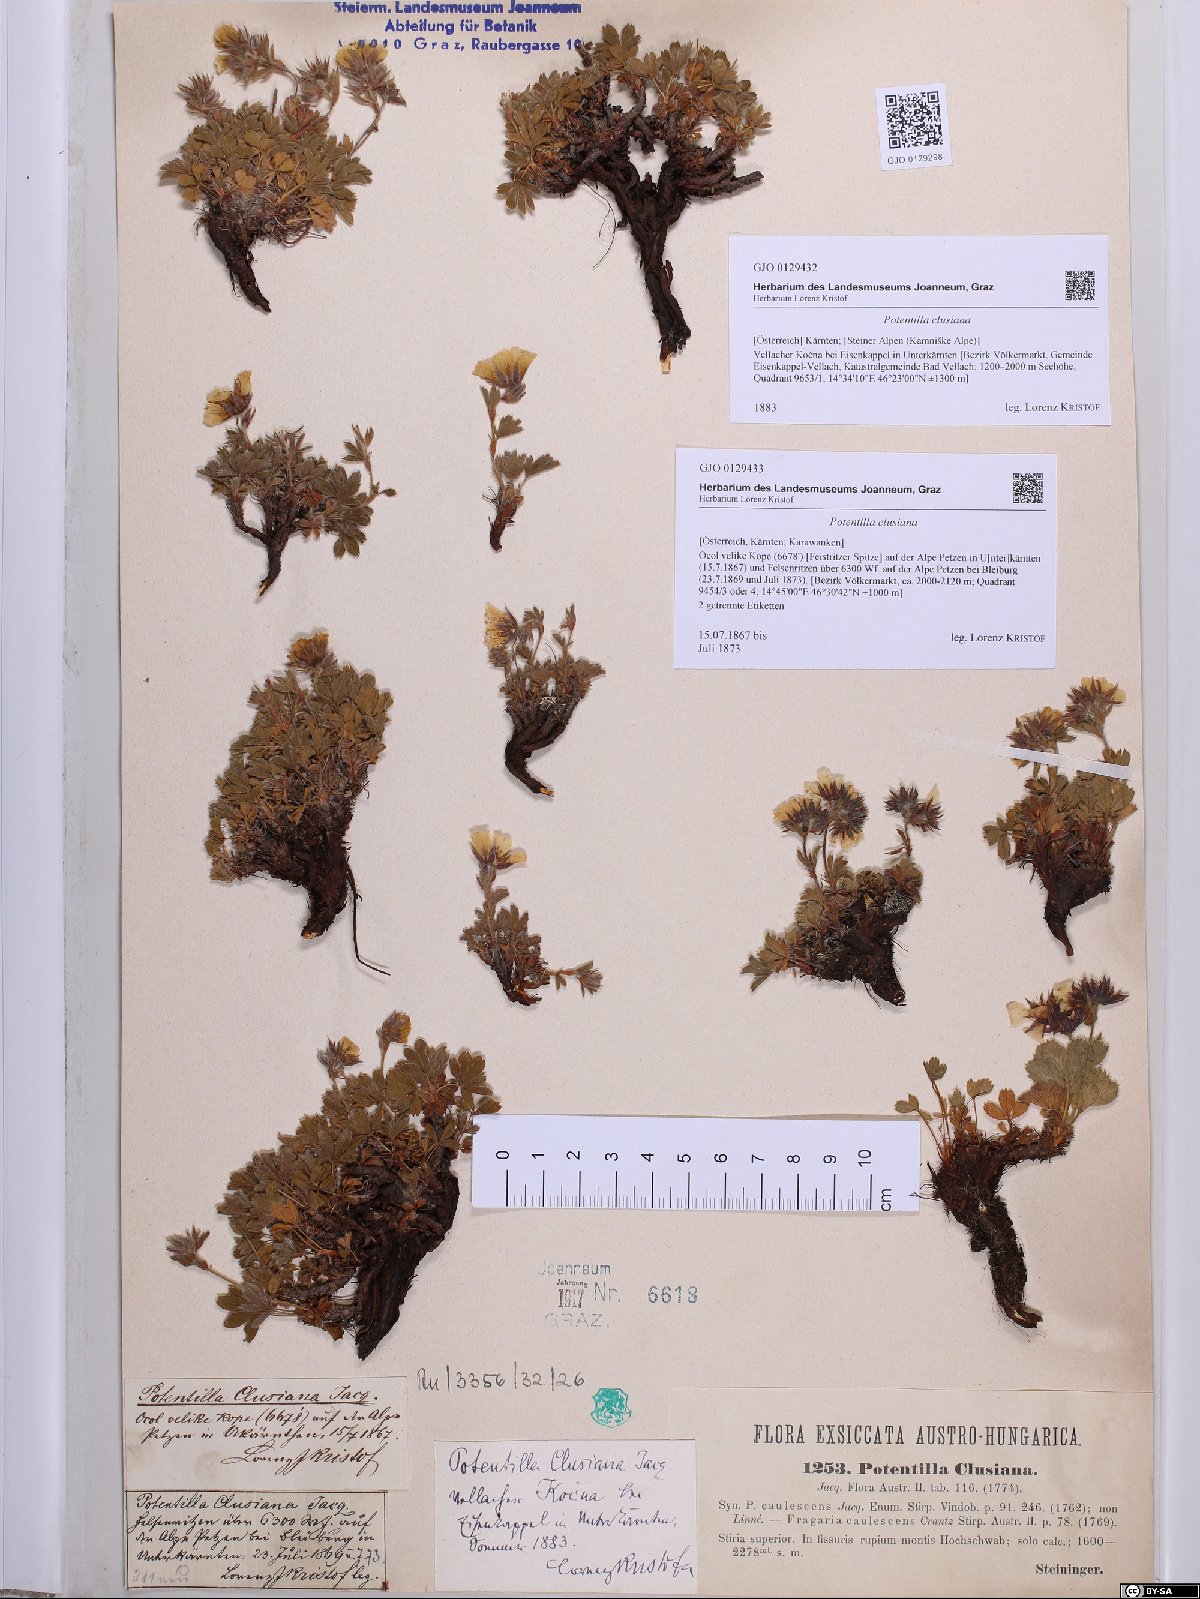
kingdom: Plantae
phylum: Tracheophyta
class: Magnoliopsida
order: Rosales
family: Rosaceae
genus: Potentilla
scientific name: Potentilla clusiana
